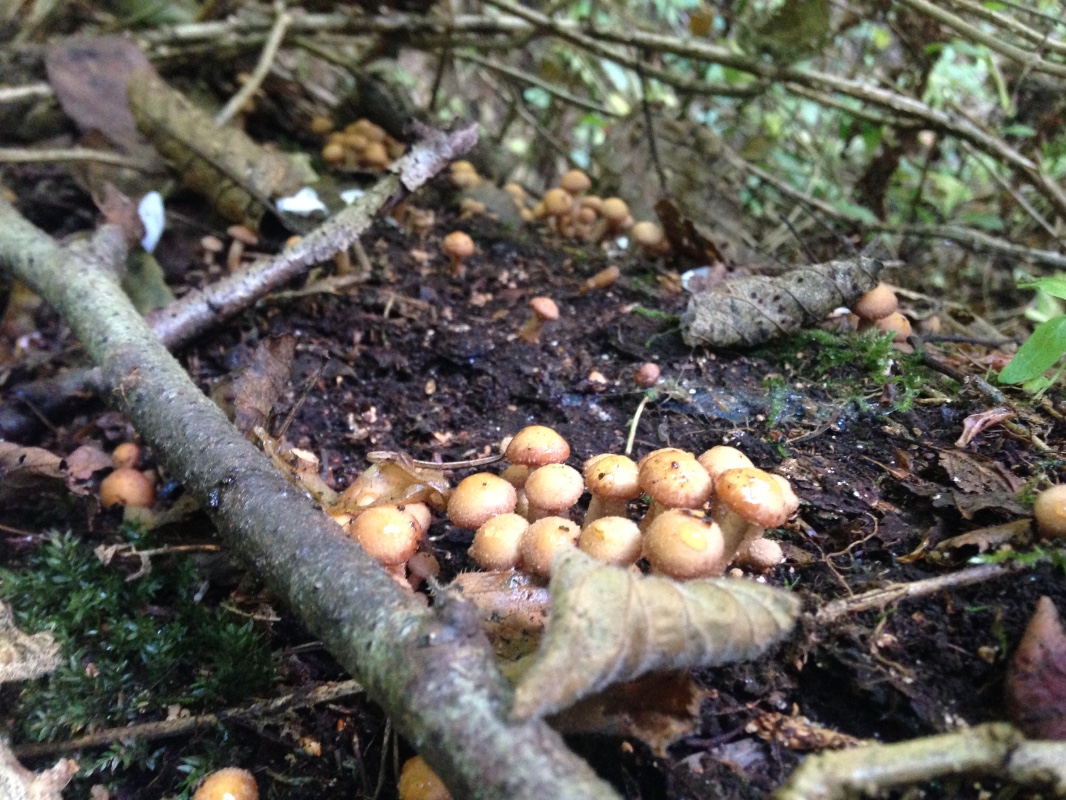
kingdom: Fungi
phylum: Basidiomycota
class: Agaricomycetes
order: Agaricales
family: Strophariaceae
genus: Kuehneromyces
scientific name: Kuehneromyces mutabilis
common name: foranderlig skælhat
